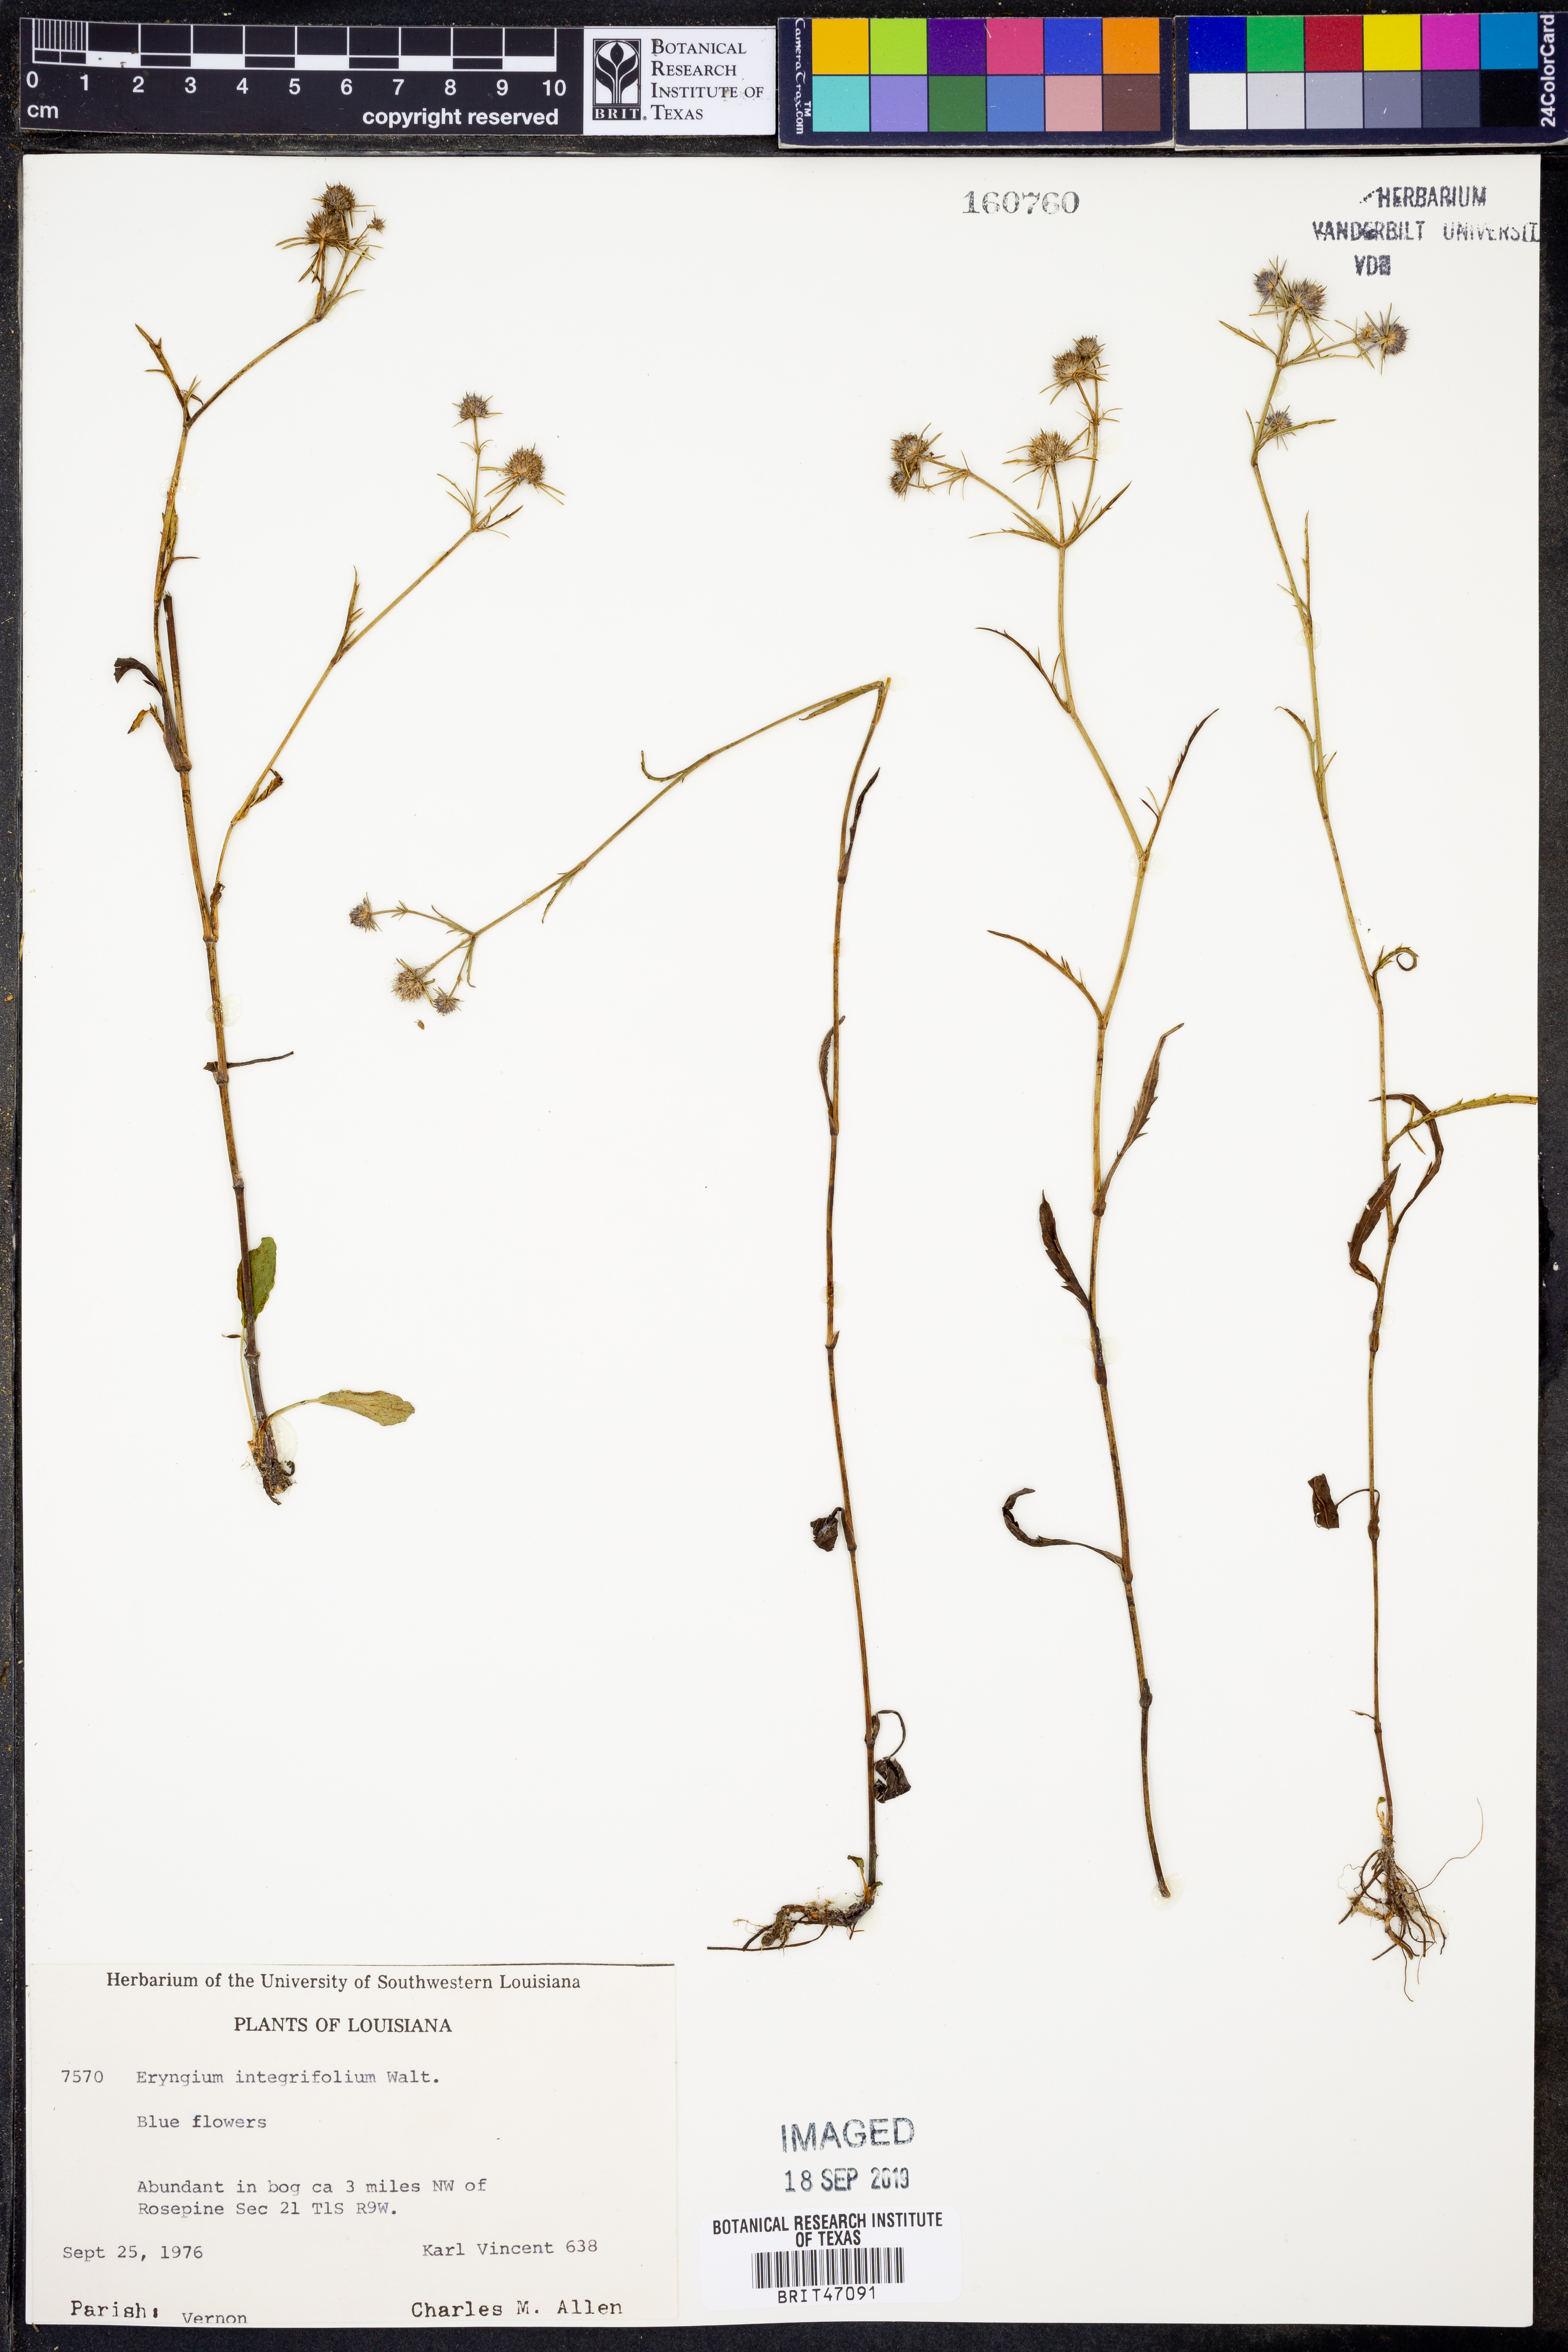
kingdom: Plantae
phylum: Tracheophyta
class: Magnoliopsida
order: Apiales
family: Apiaceae
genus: Eryngium
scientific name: Eryngium integrifolium
